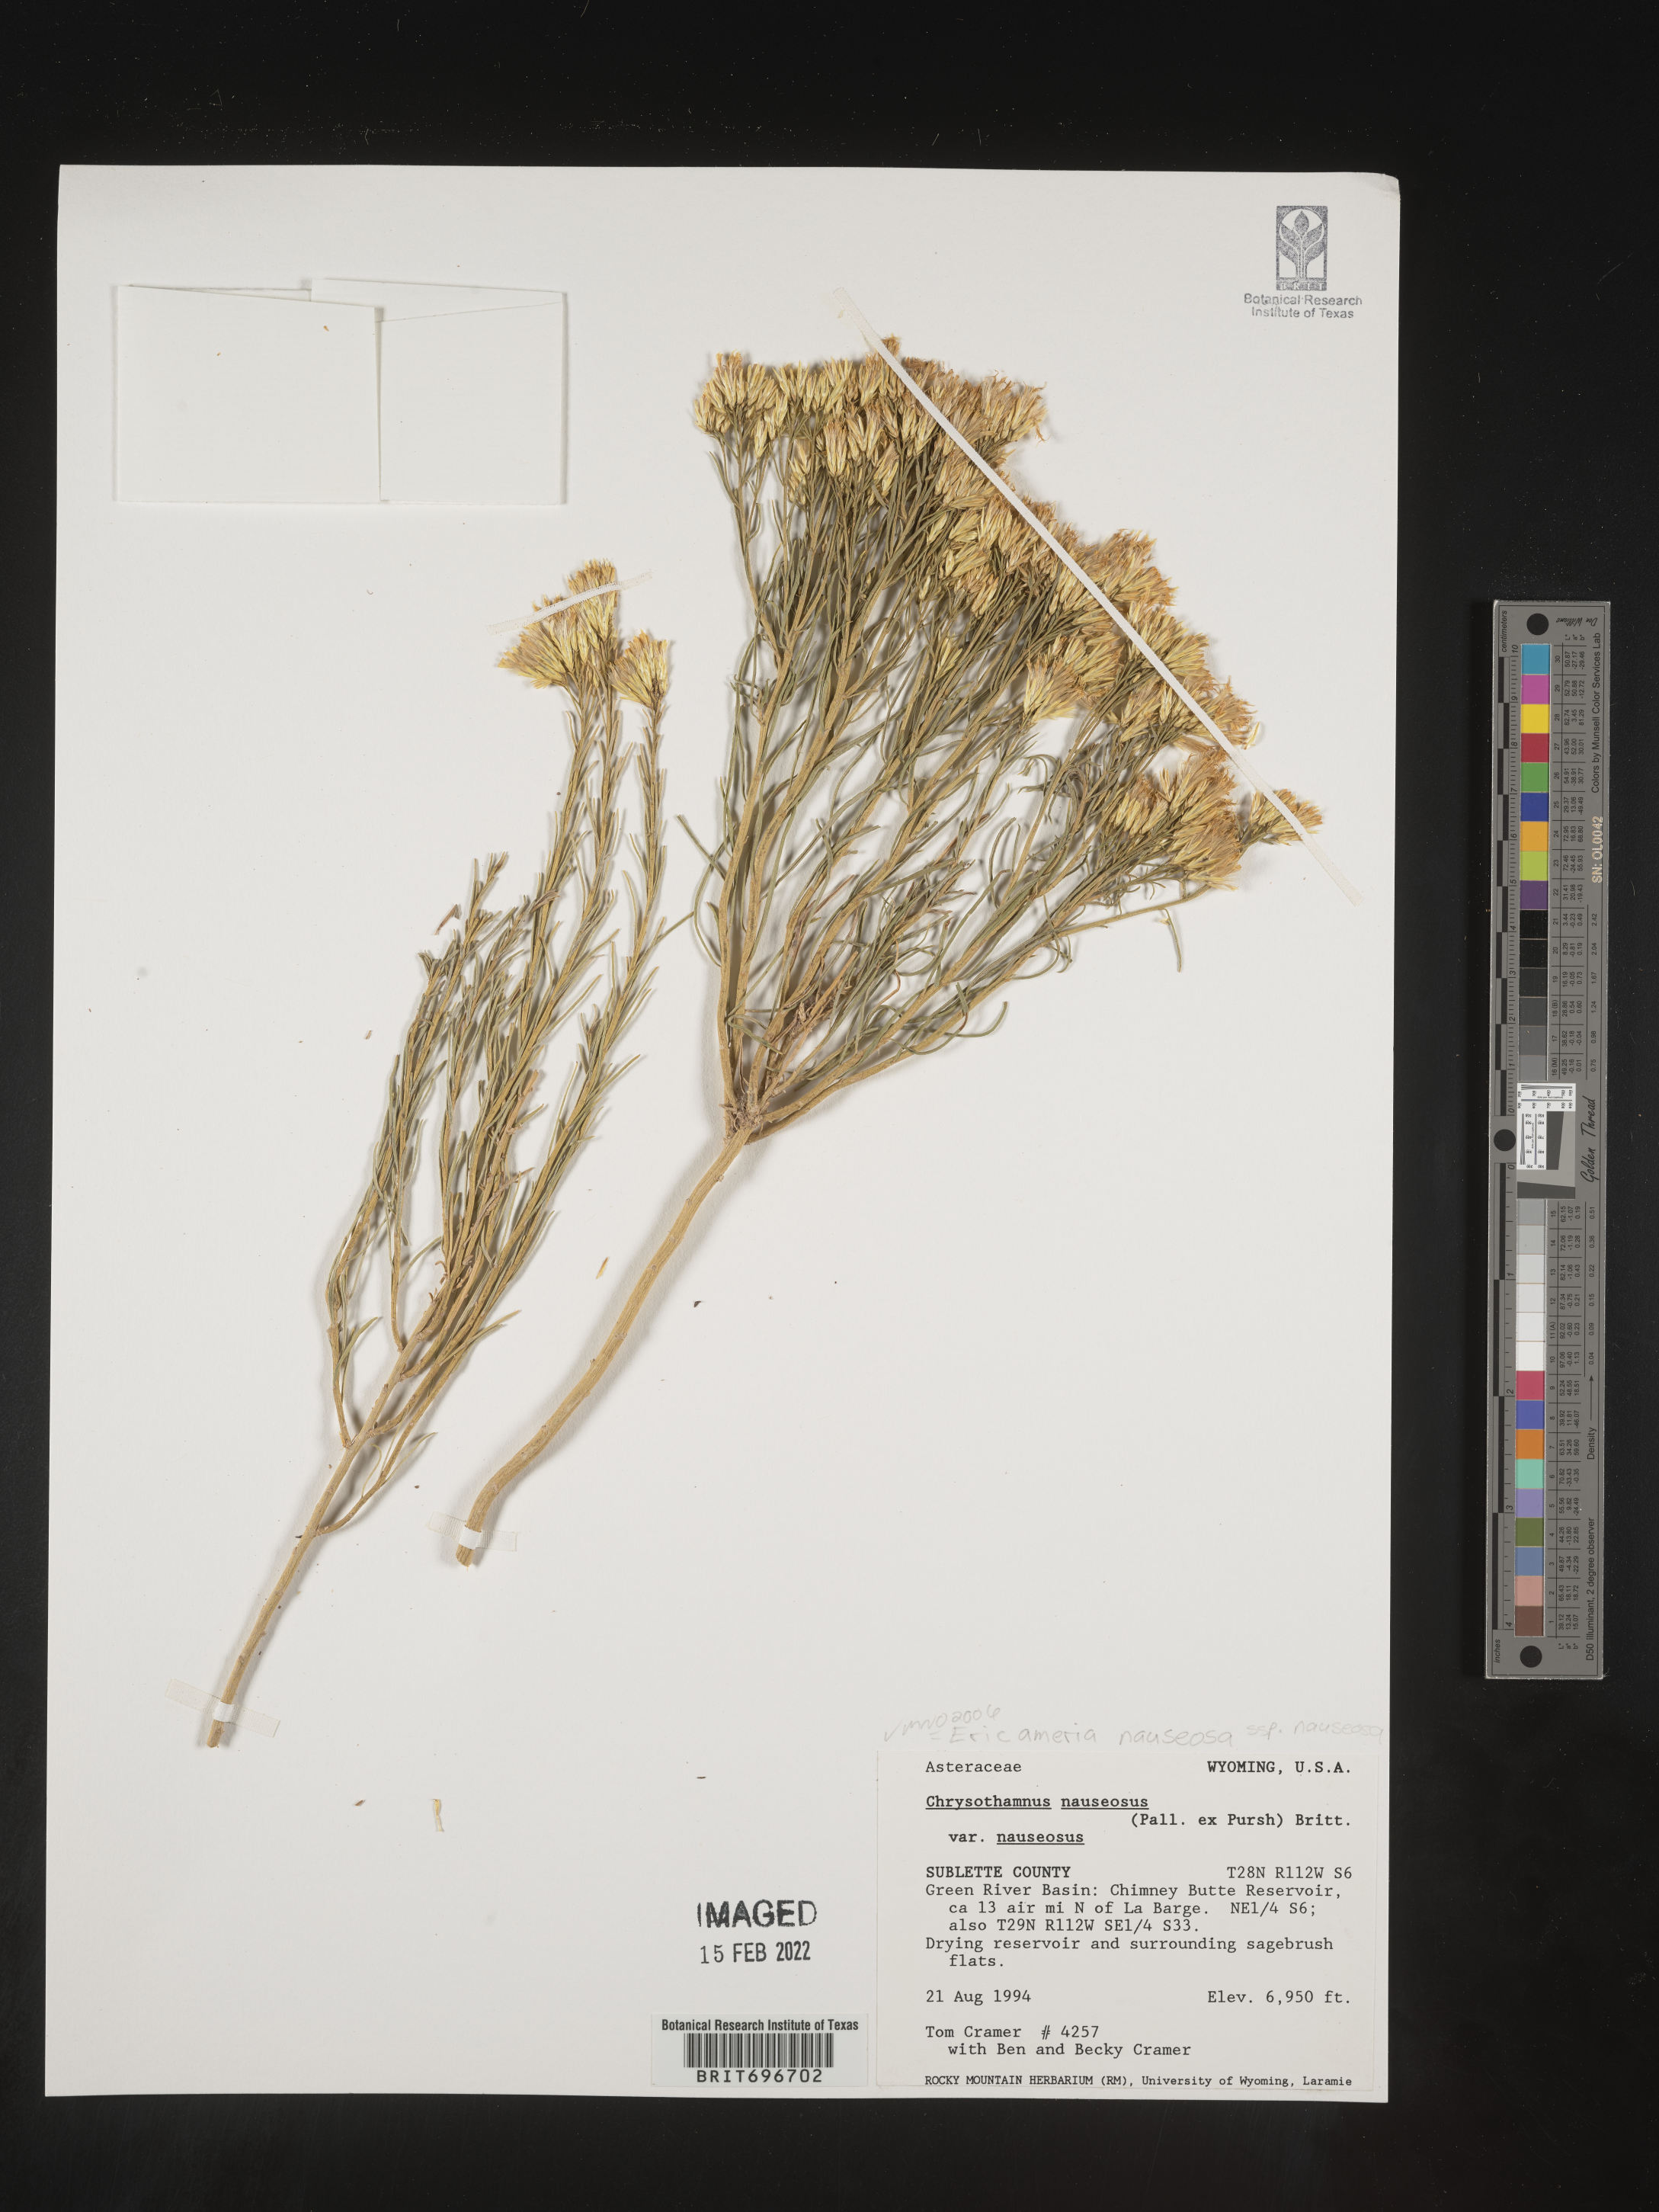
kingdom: Plantae
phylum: Tracheophyta
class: Magnoliopsida
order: Asterales
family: Asteraceae
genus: Ericameria
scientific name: Ericameria nauseosa
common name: Rubber rabbitbrush
